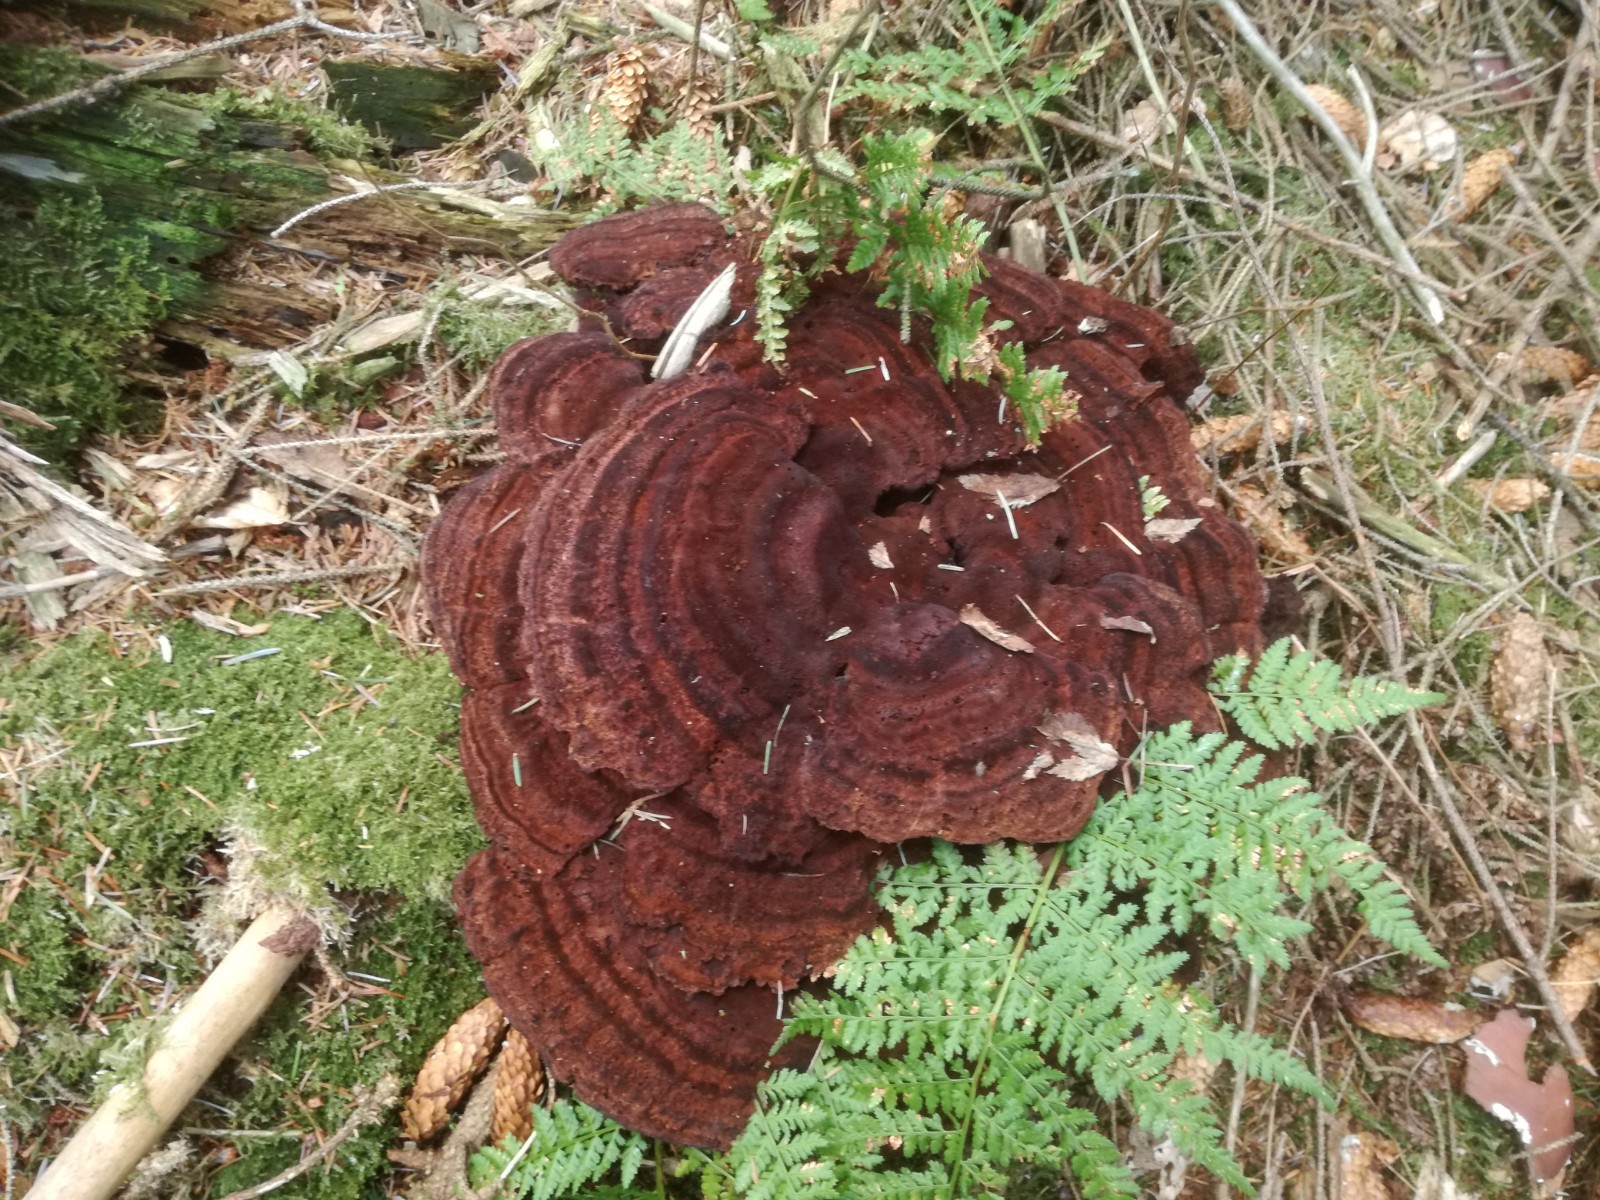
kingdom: Fungi
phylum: Basidiomycota
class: Agaricomycetes
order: Polyporales
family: Laetiporaceae
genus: Phaeolus
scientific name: Phaeolus schweinitzii
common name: brunporesvamp
